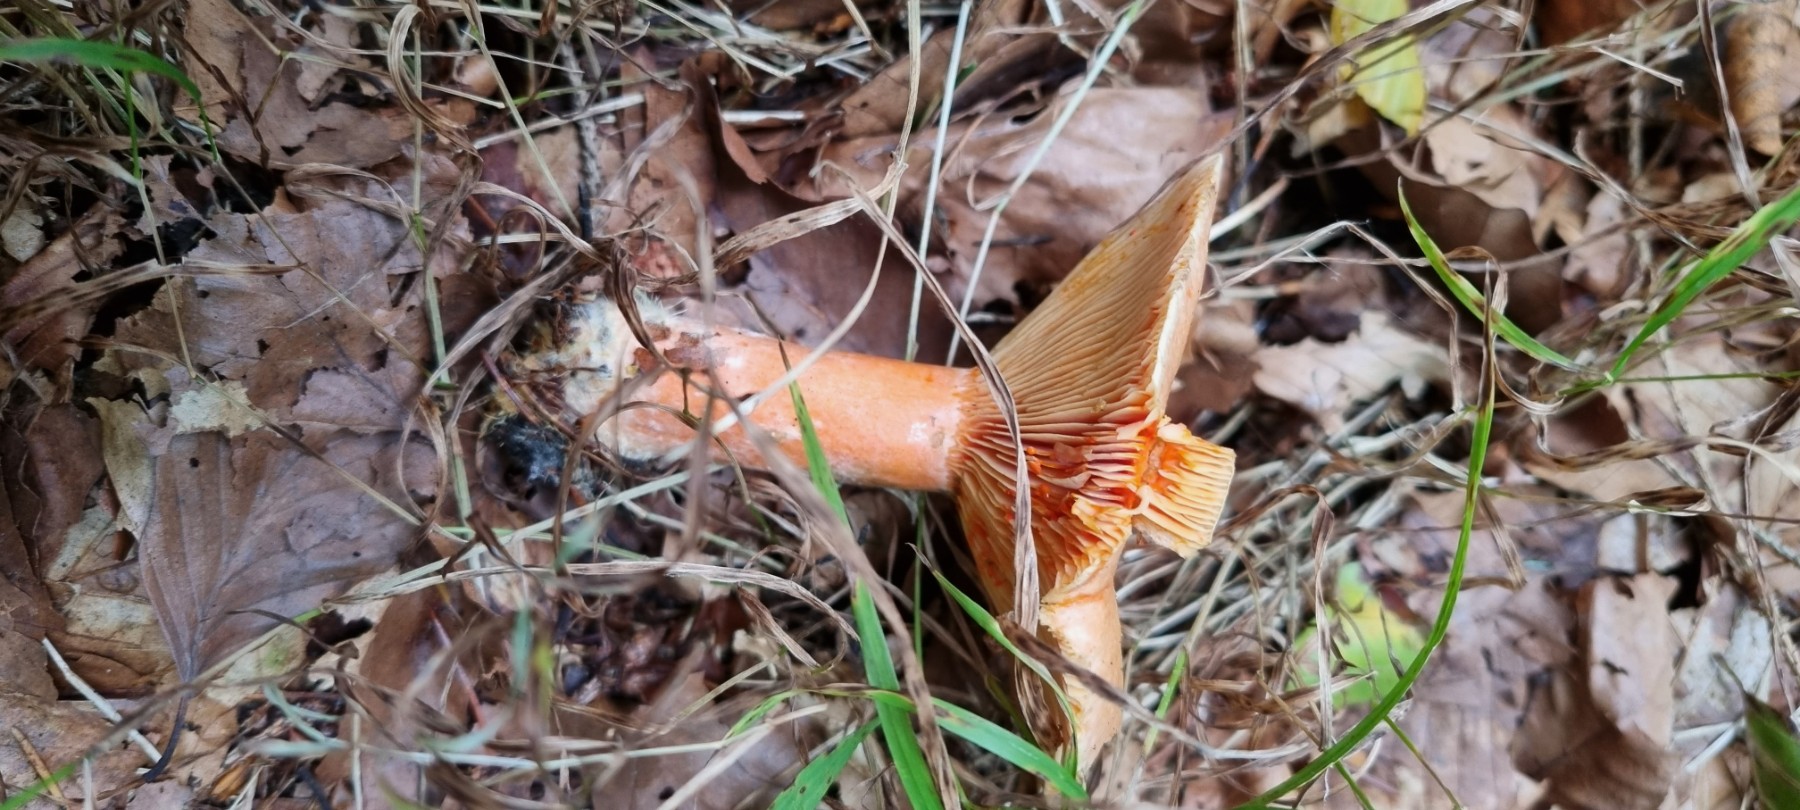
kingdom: Fungi
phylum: Basidiomycota
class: Agaricomycetes
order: Russulales
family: Russulaceae
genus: Lactarius
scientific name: Lactarius deterrimus
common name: gran-mælkehat
